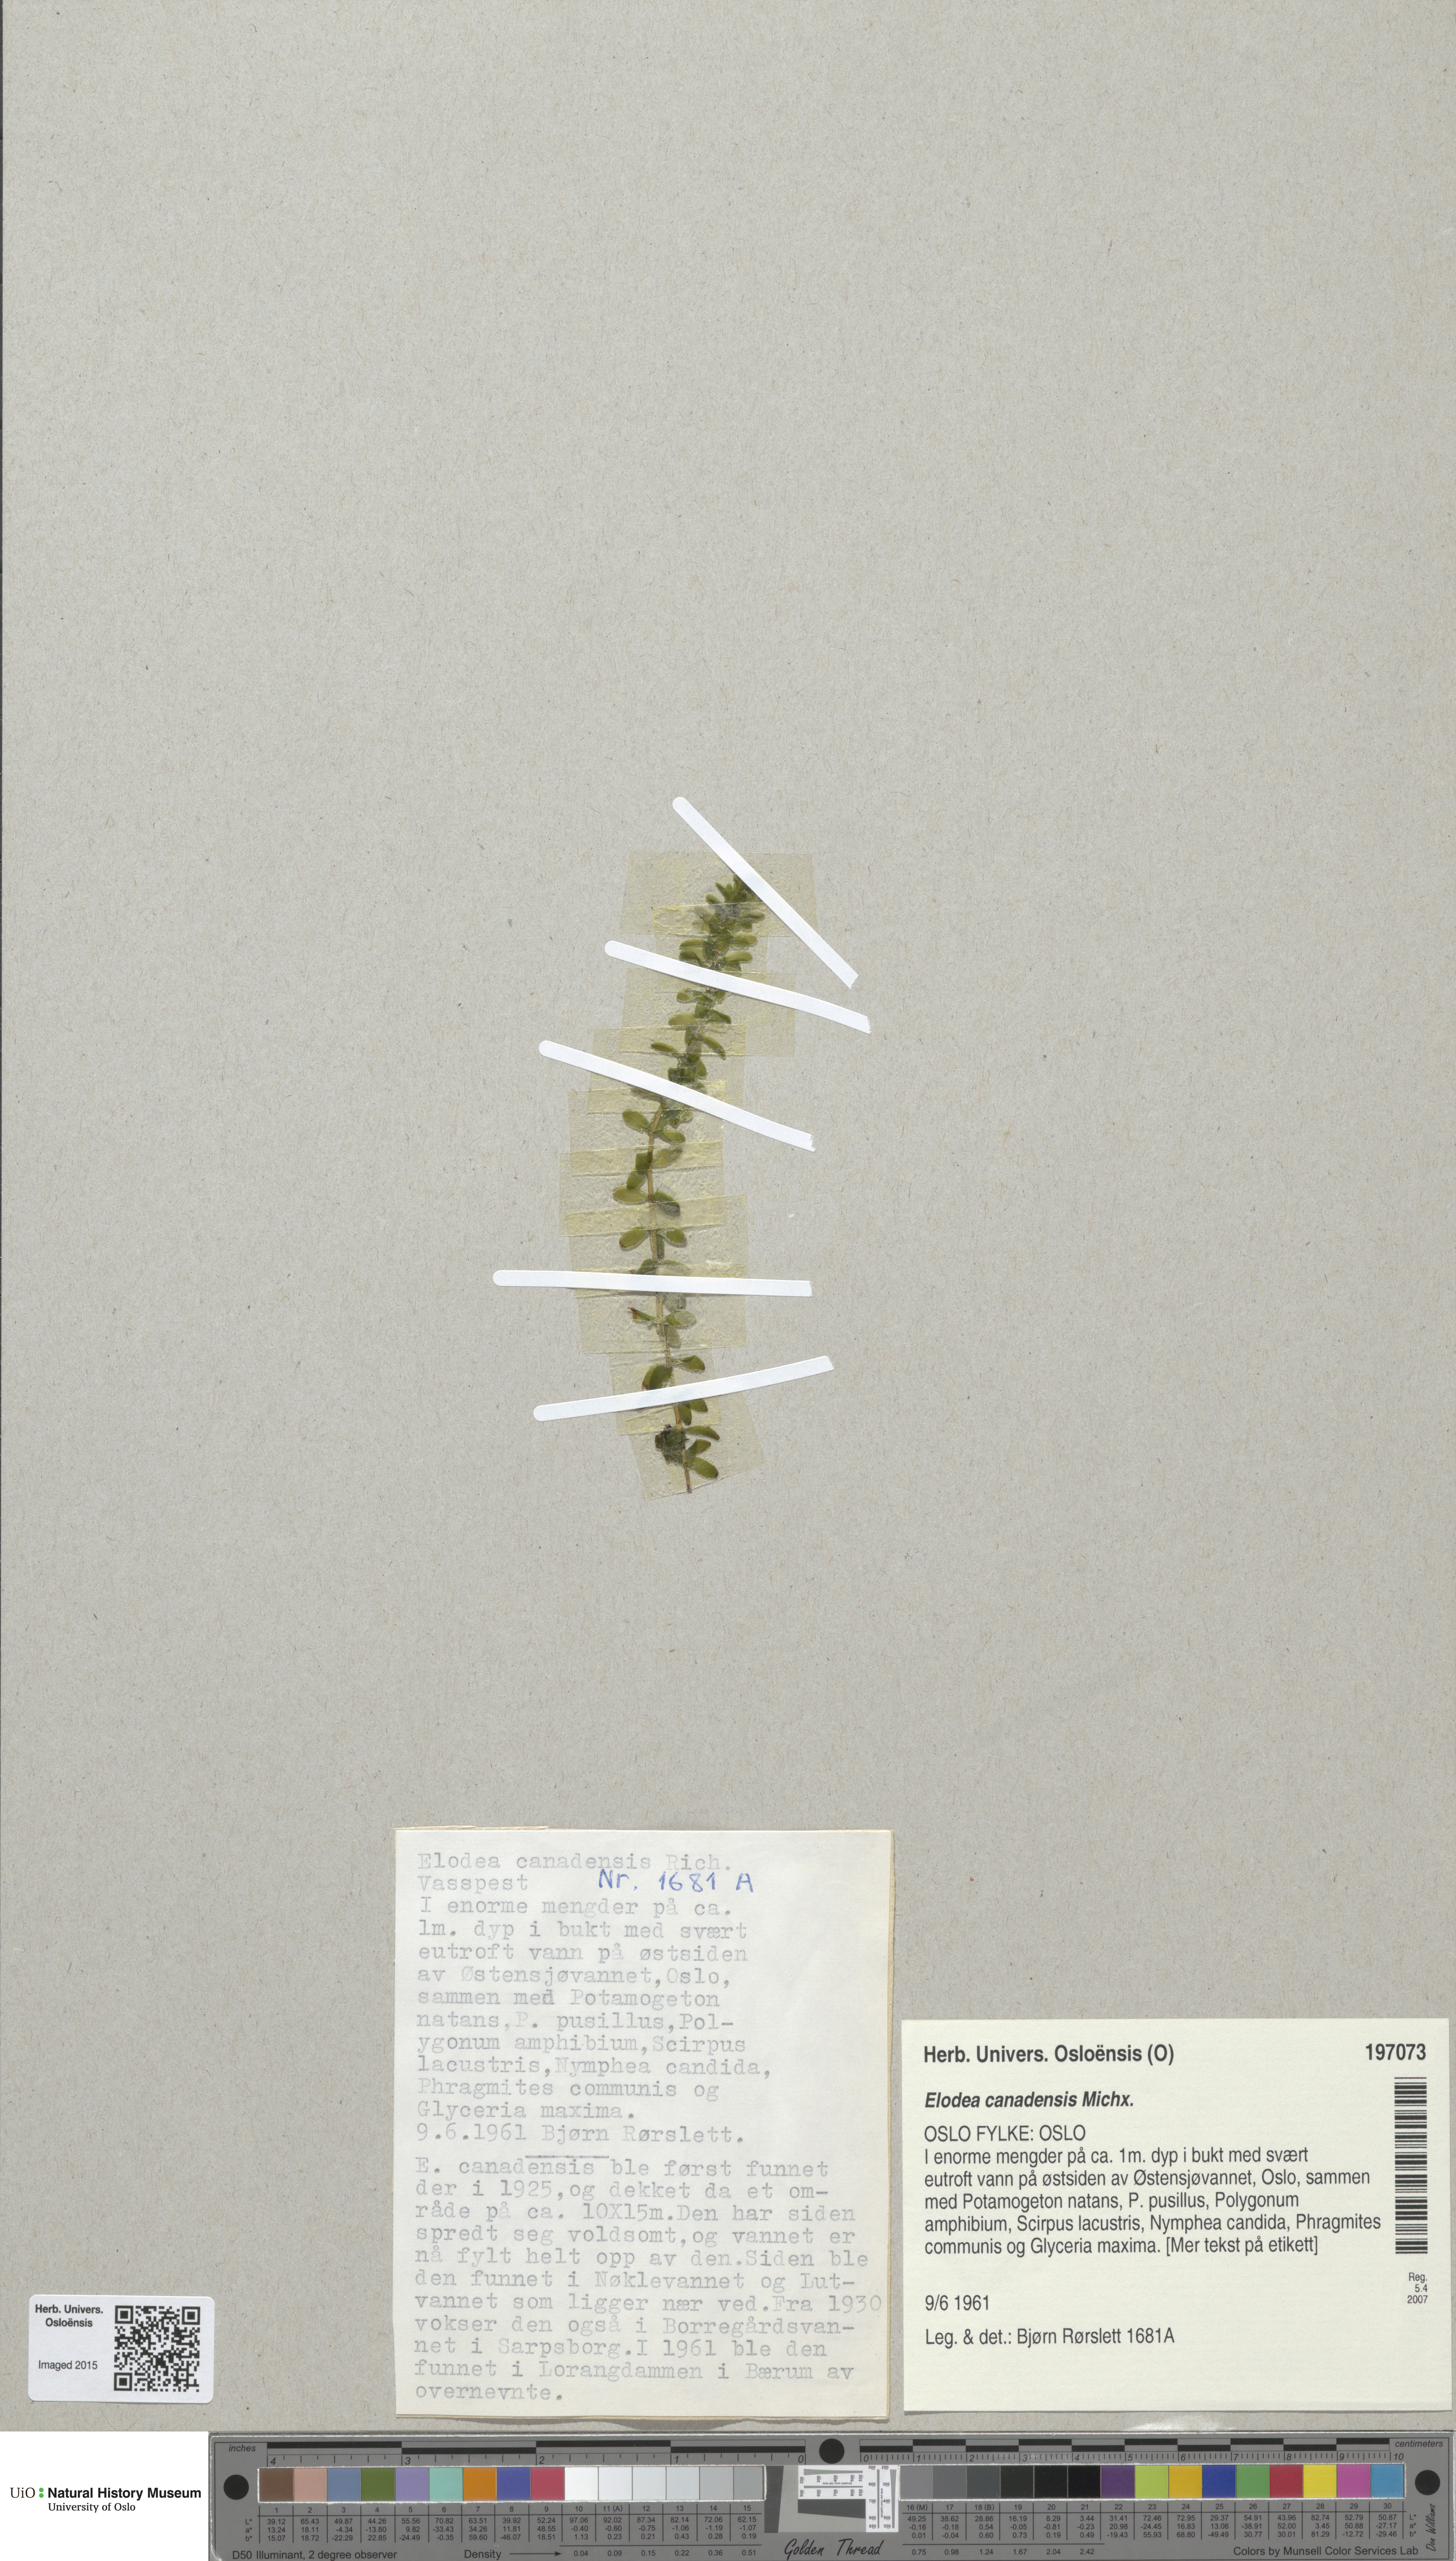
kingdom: Plantae
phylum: Tracheophyta
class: Liliopsida
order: Alismatales
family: Hydrocharitaceae
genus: Elodea
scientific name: Elodea canadensis
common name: Canadian waterweed
